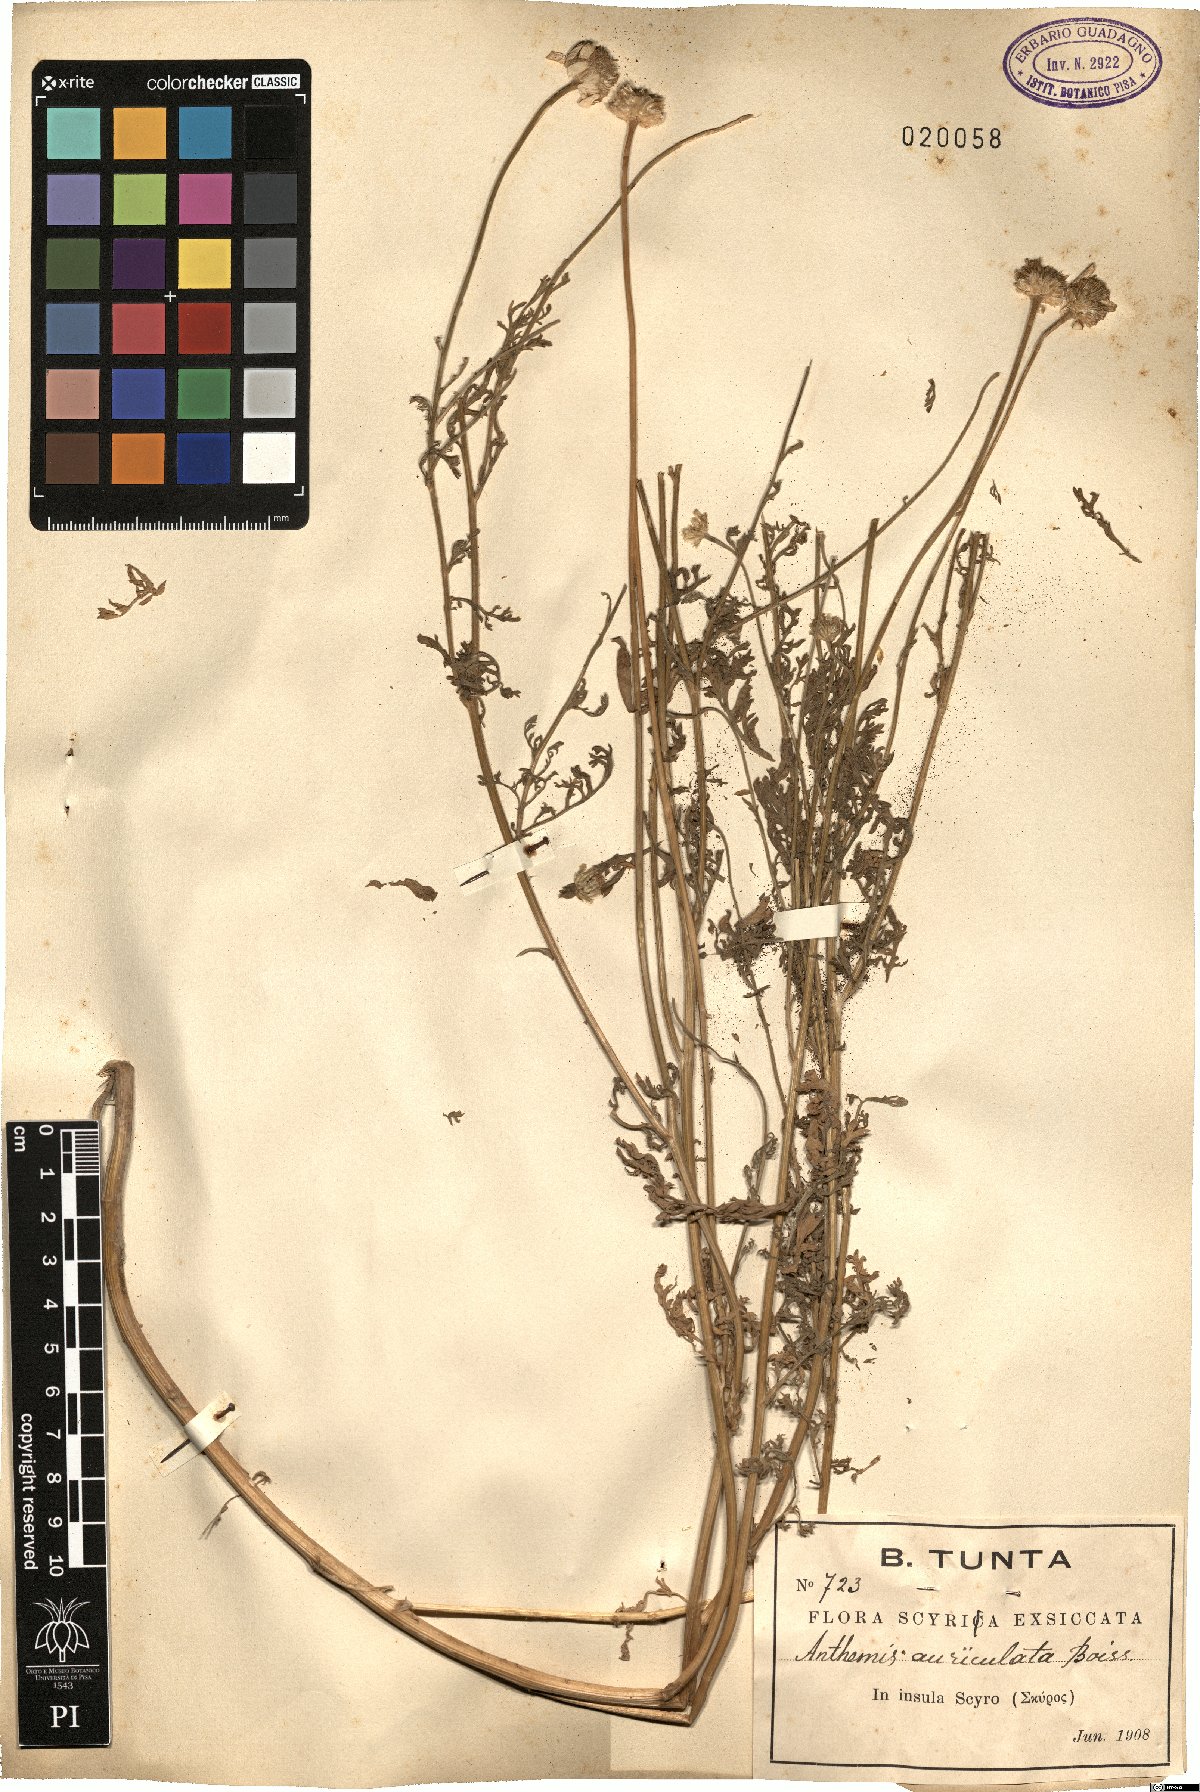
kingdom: Plantae
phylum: Tracheophyta
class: Magnoliopsida
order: Asterales
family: Asteraceae
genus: Anthemis
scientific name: Anthemis auriculata
